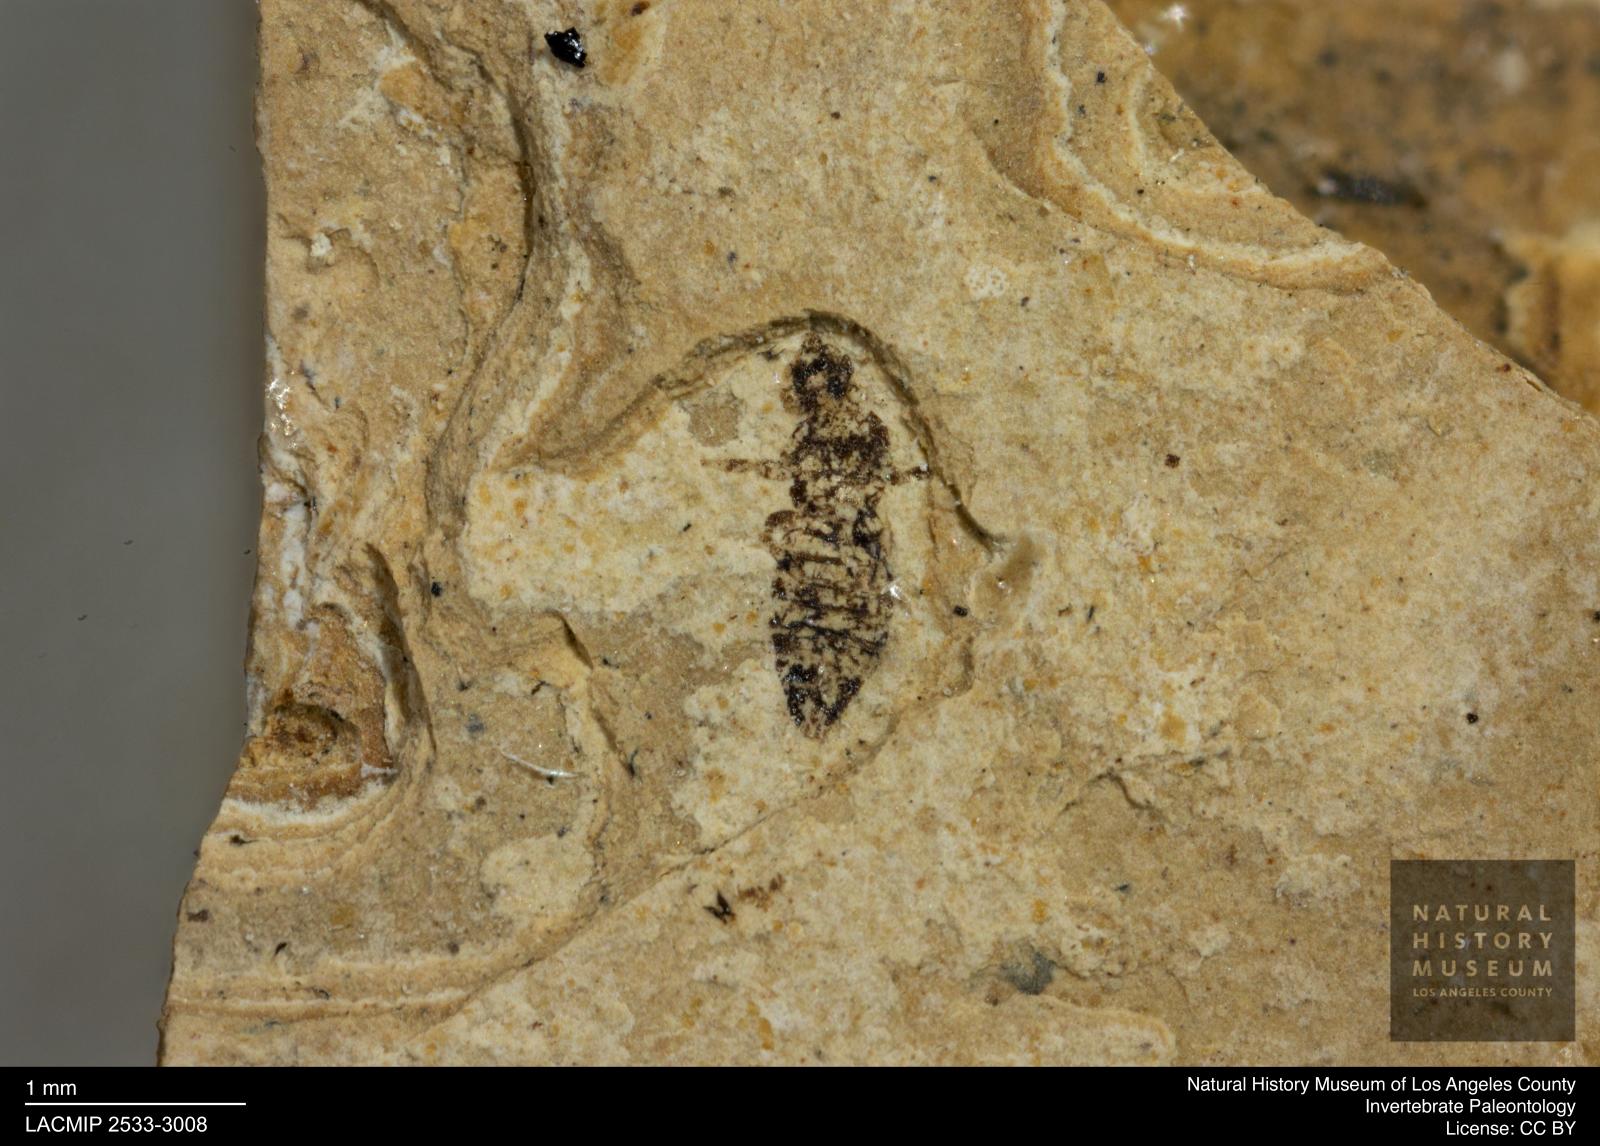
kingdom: Animalia
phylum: Arthropoda
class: Insecta
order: Thysanoptera
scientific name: Thysanoptera
